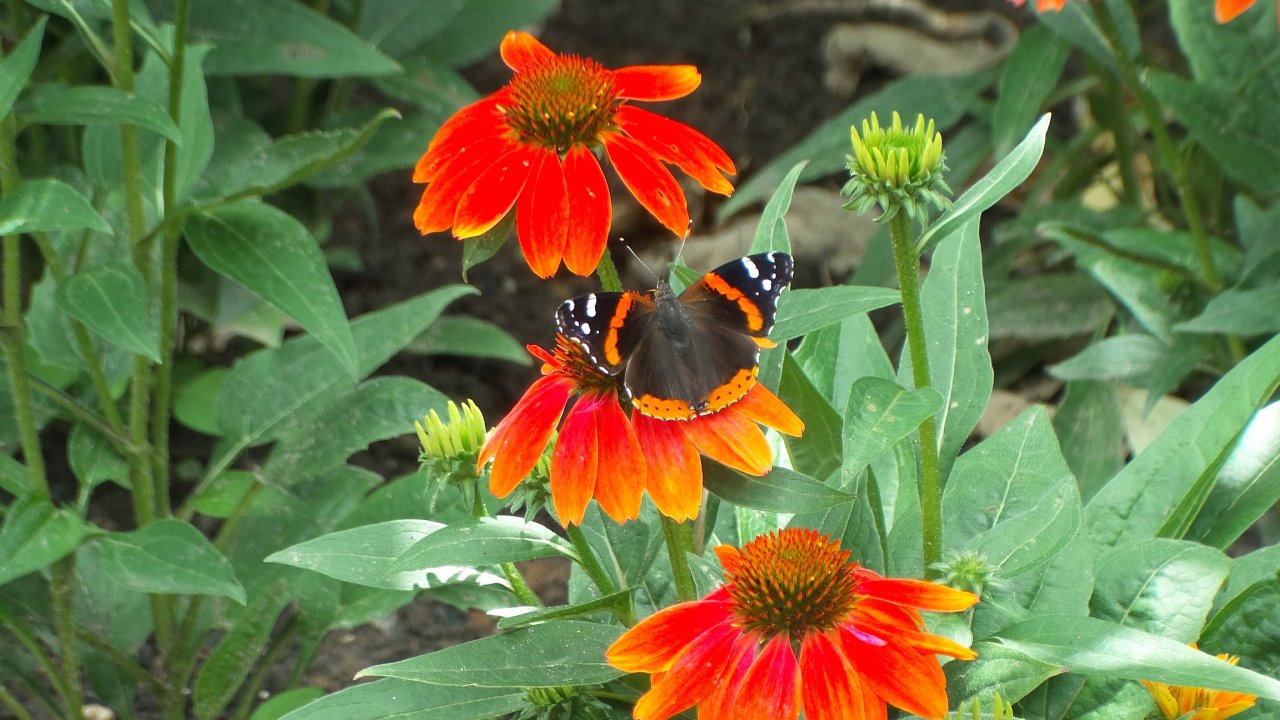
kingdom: Animalia
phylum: Arthropoda
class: Insecta
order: Lepidoptera
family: Nymphalidae
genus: Vanessa
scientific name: Vanessa atalanta
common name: Red Admiral
